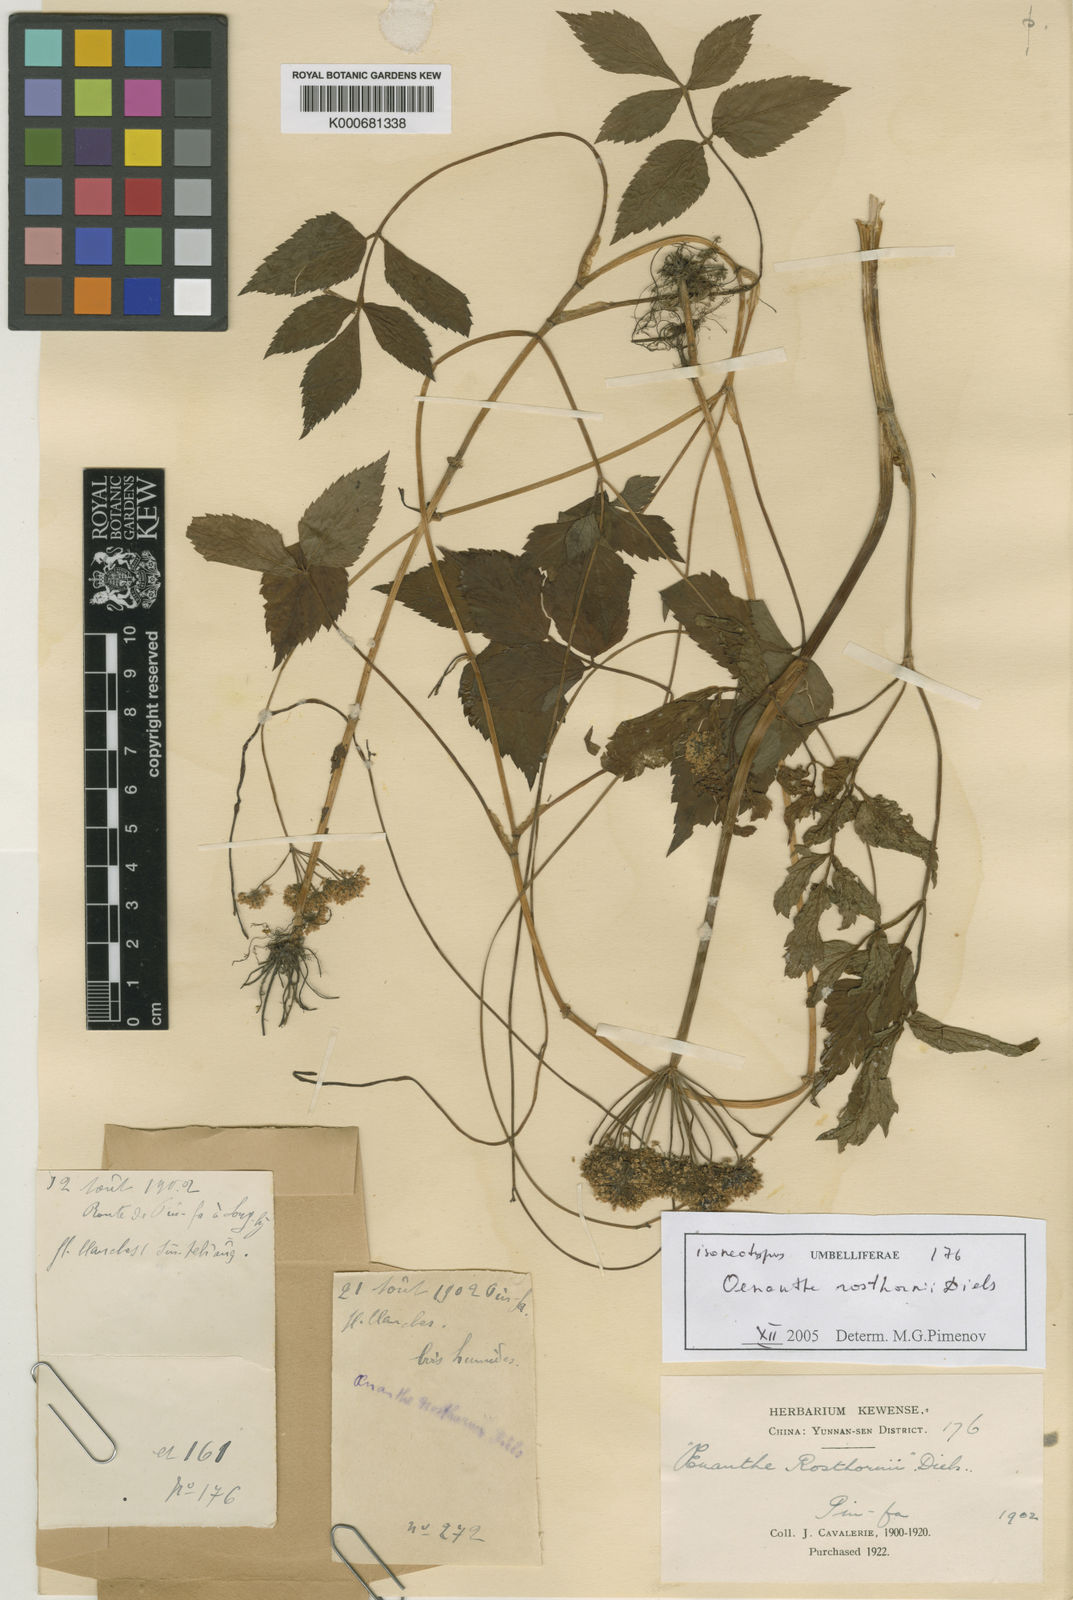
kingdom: Plantae
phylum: Tracheophyta
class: Magnoliopsida
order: Apiales
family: Apiaceae
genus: Oenanthe
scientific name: Oenanthe javanica
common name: Java water-dropwort
